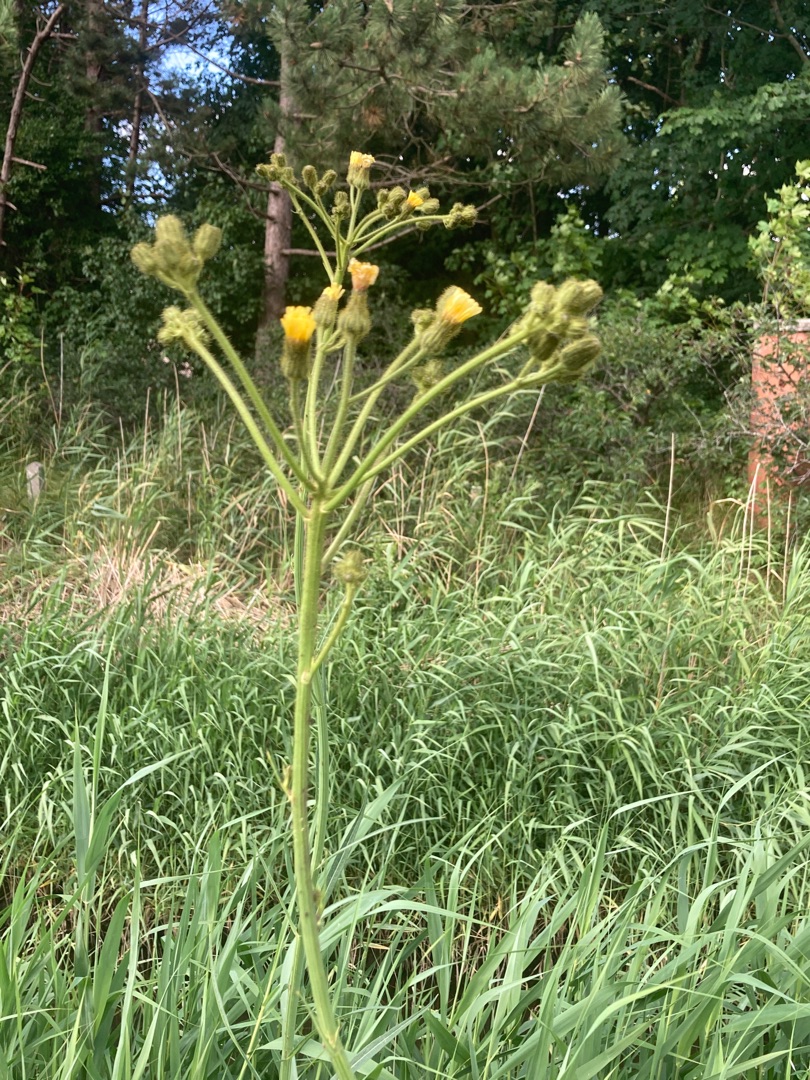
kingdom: Plantae
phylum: Tracheophyta
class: Magnoliopsida
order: Asterales
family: Asteraceae
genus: Sonchus
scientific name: Sonchus palustris
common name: Kær-svinemælk
